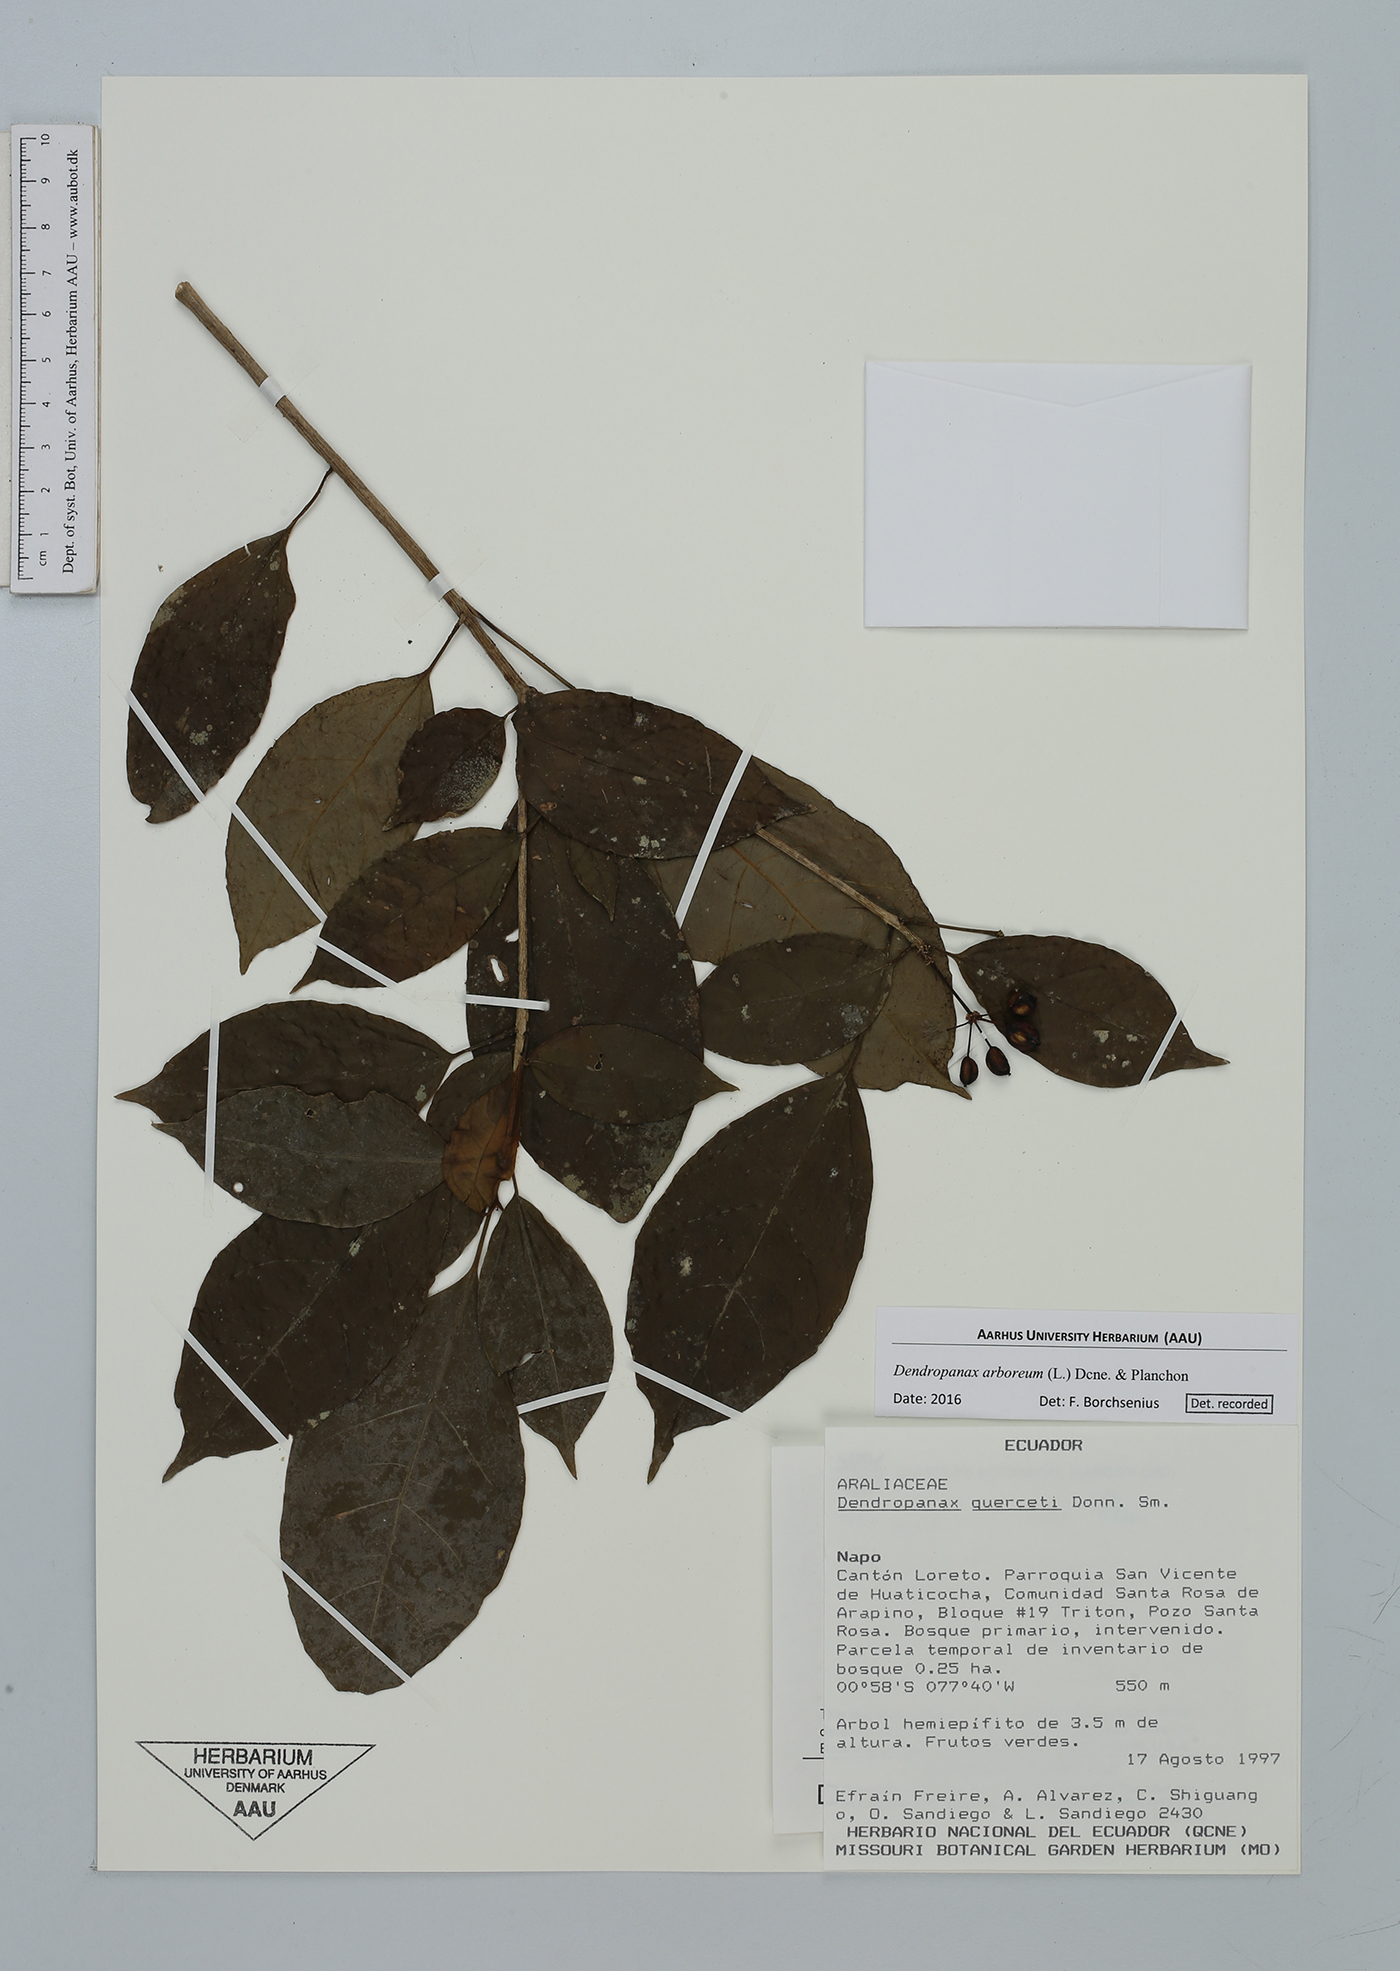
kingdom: Plantae
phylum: Tracheophyta
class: Magnoliopsida
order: Apiales
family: Araliaceae
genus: Dendropanax
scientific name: Dendropanax arboreus
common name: Potato-wood
